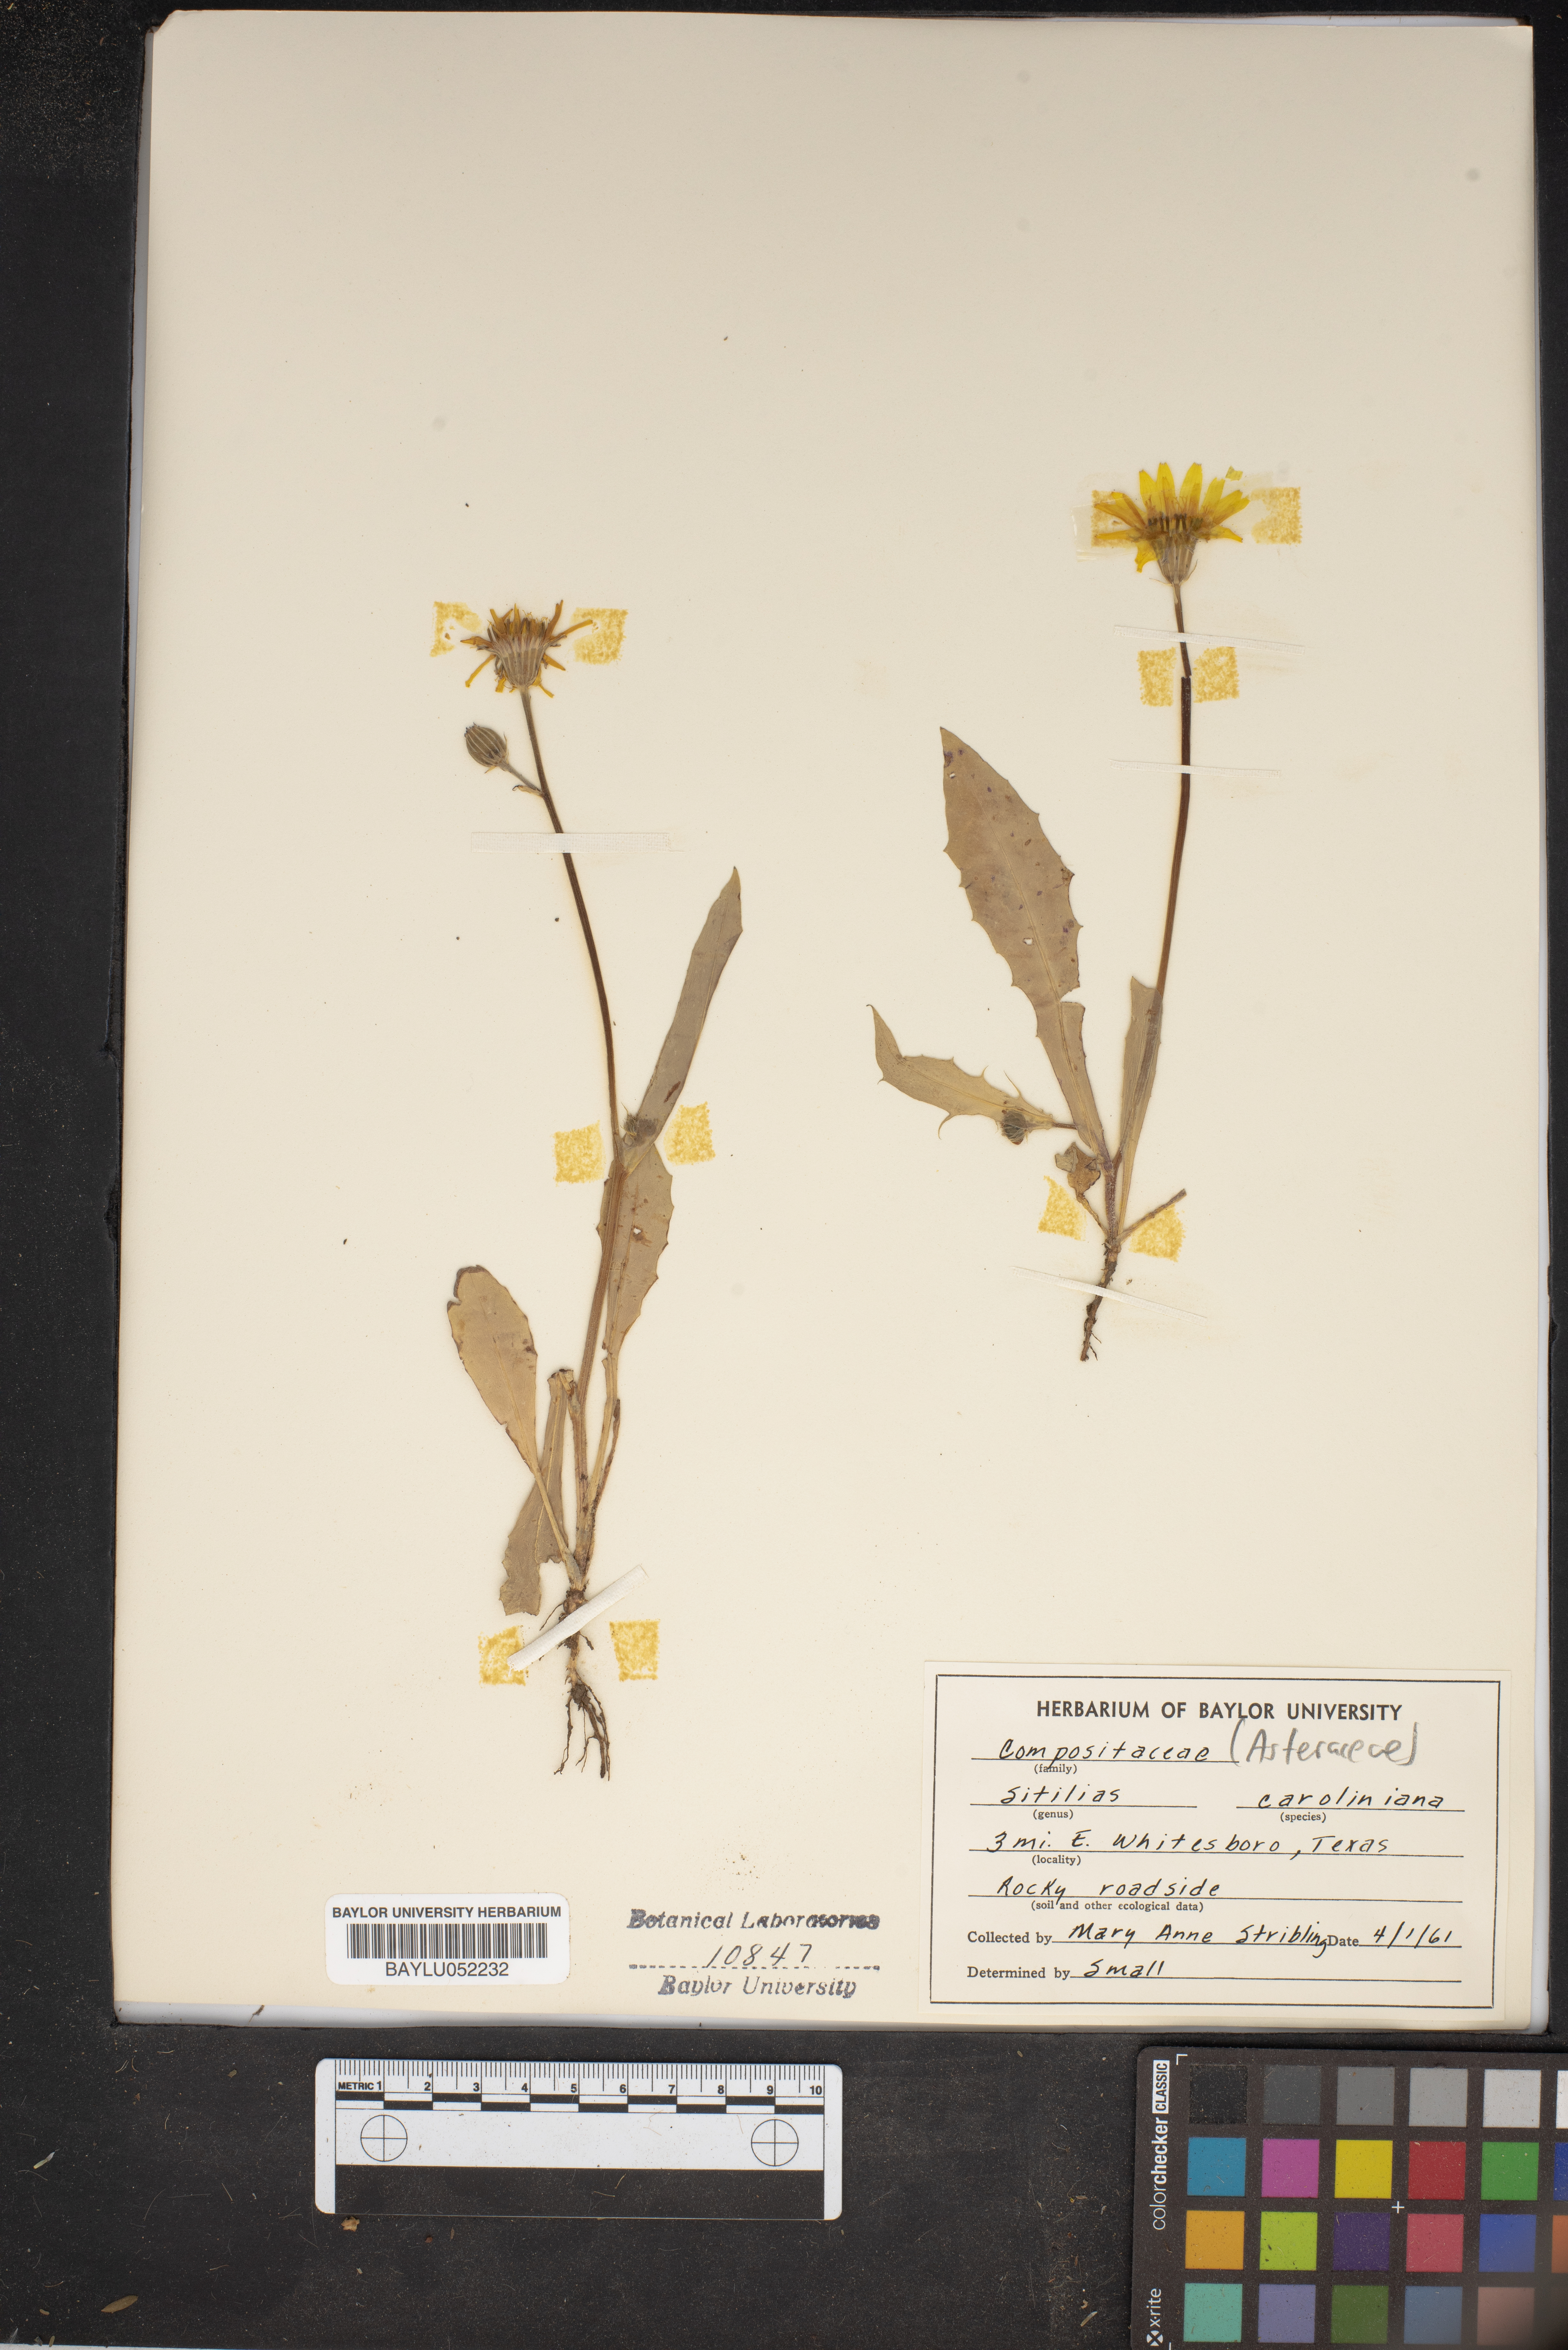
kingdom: Plantae
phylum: Tracheophyta
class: Magnoliopsida
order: Asterales
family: Asteraceae
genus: Pyrrhopappus
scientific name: Pyrrhopappus carolinianus
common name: Carolina desert-chicory
